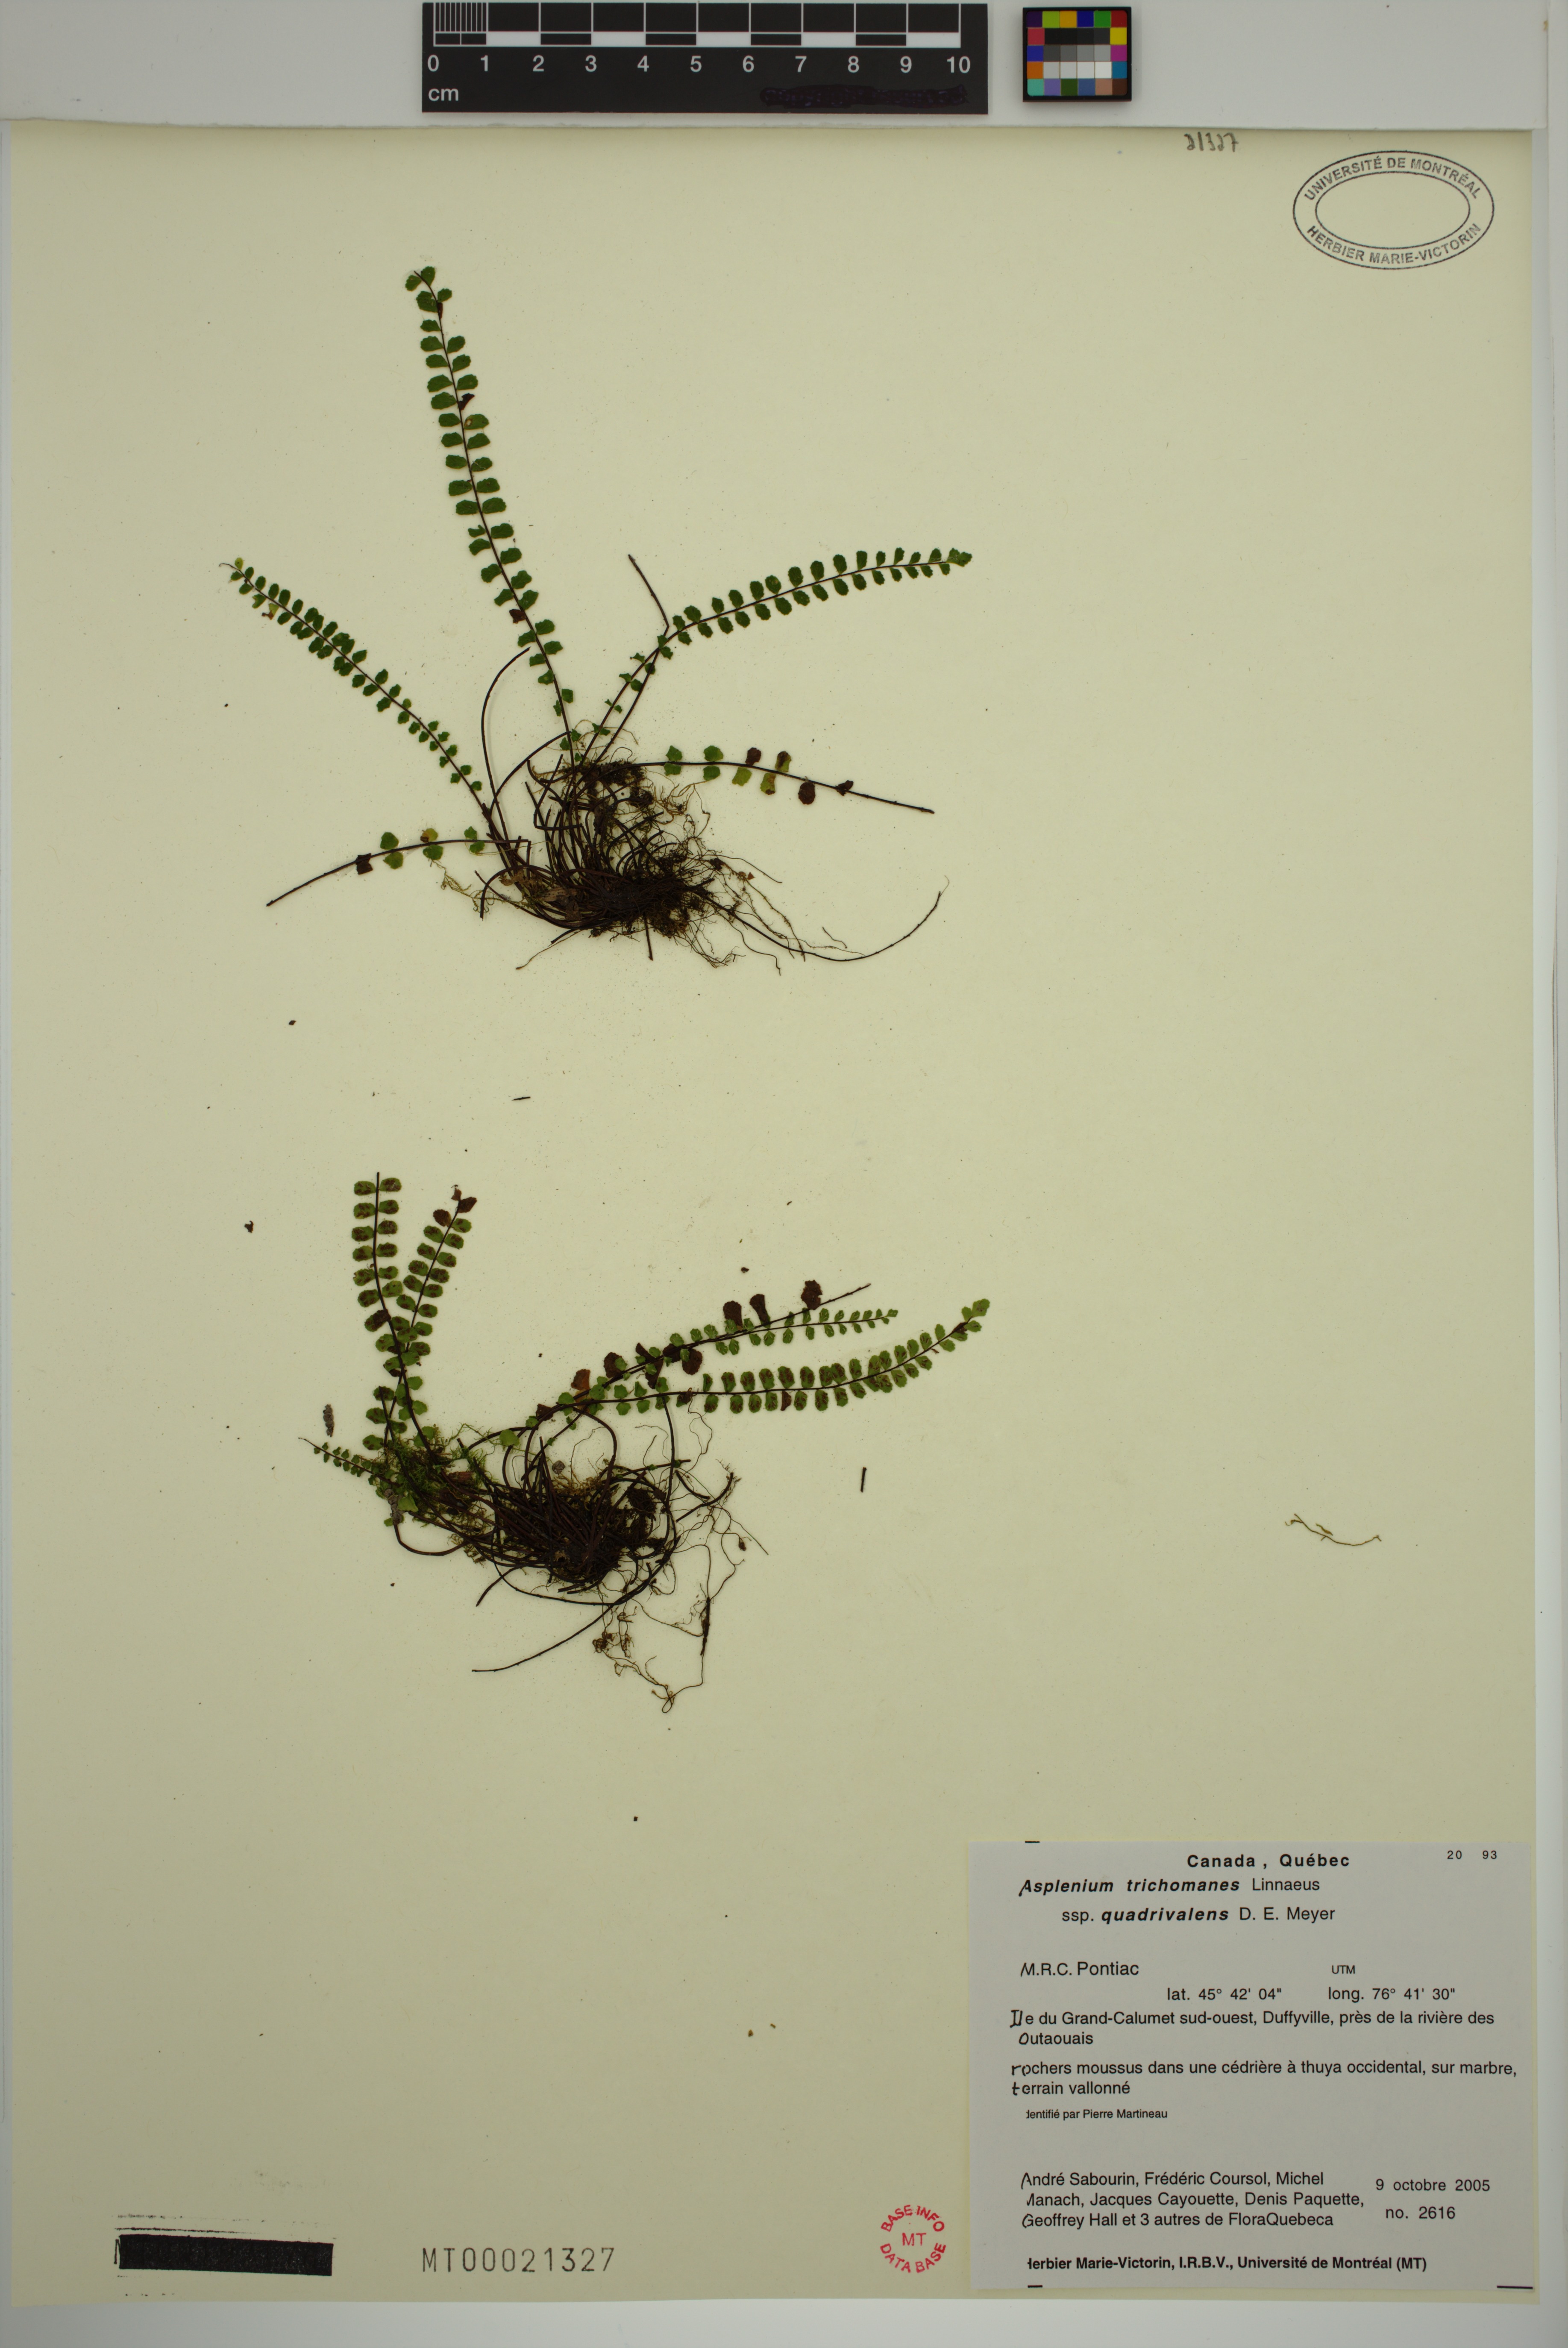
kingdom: Plantae
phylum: Tracheophyta
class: Polypodiopsida
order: Polypodiales
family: Aspleniaceae
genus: Asplenium
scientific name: Asplenium quadrivalens
